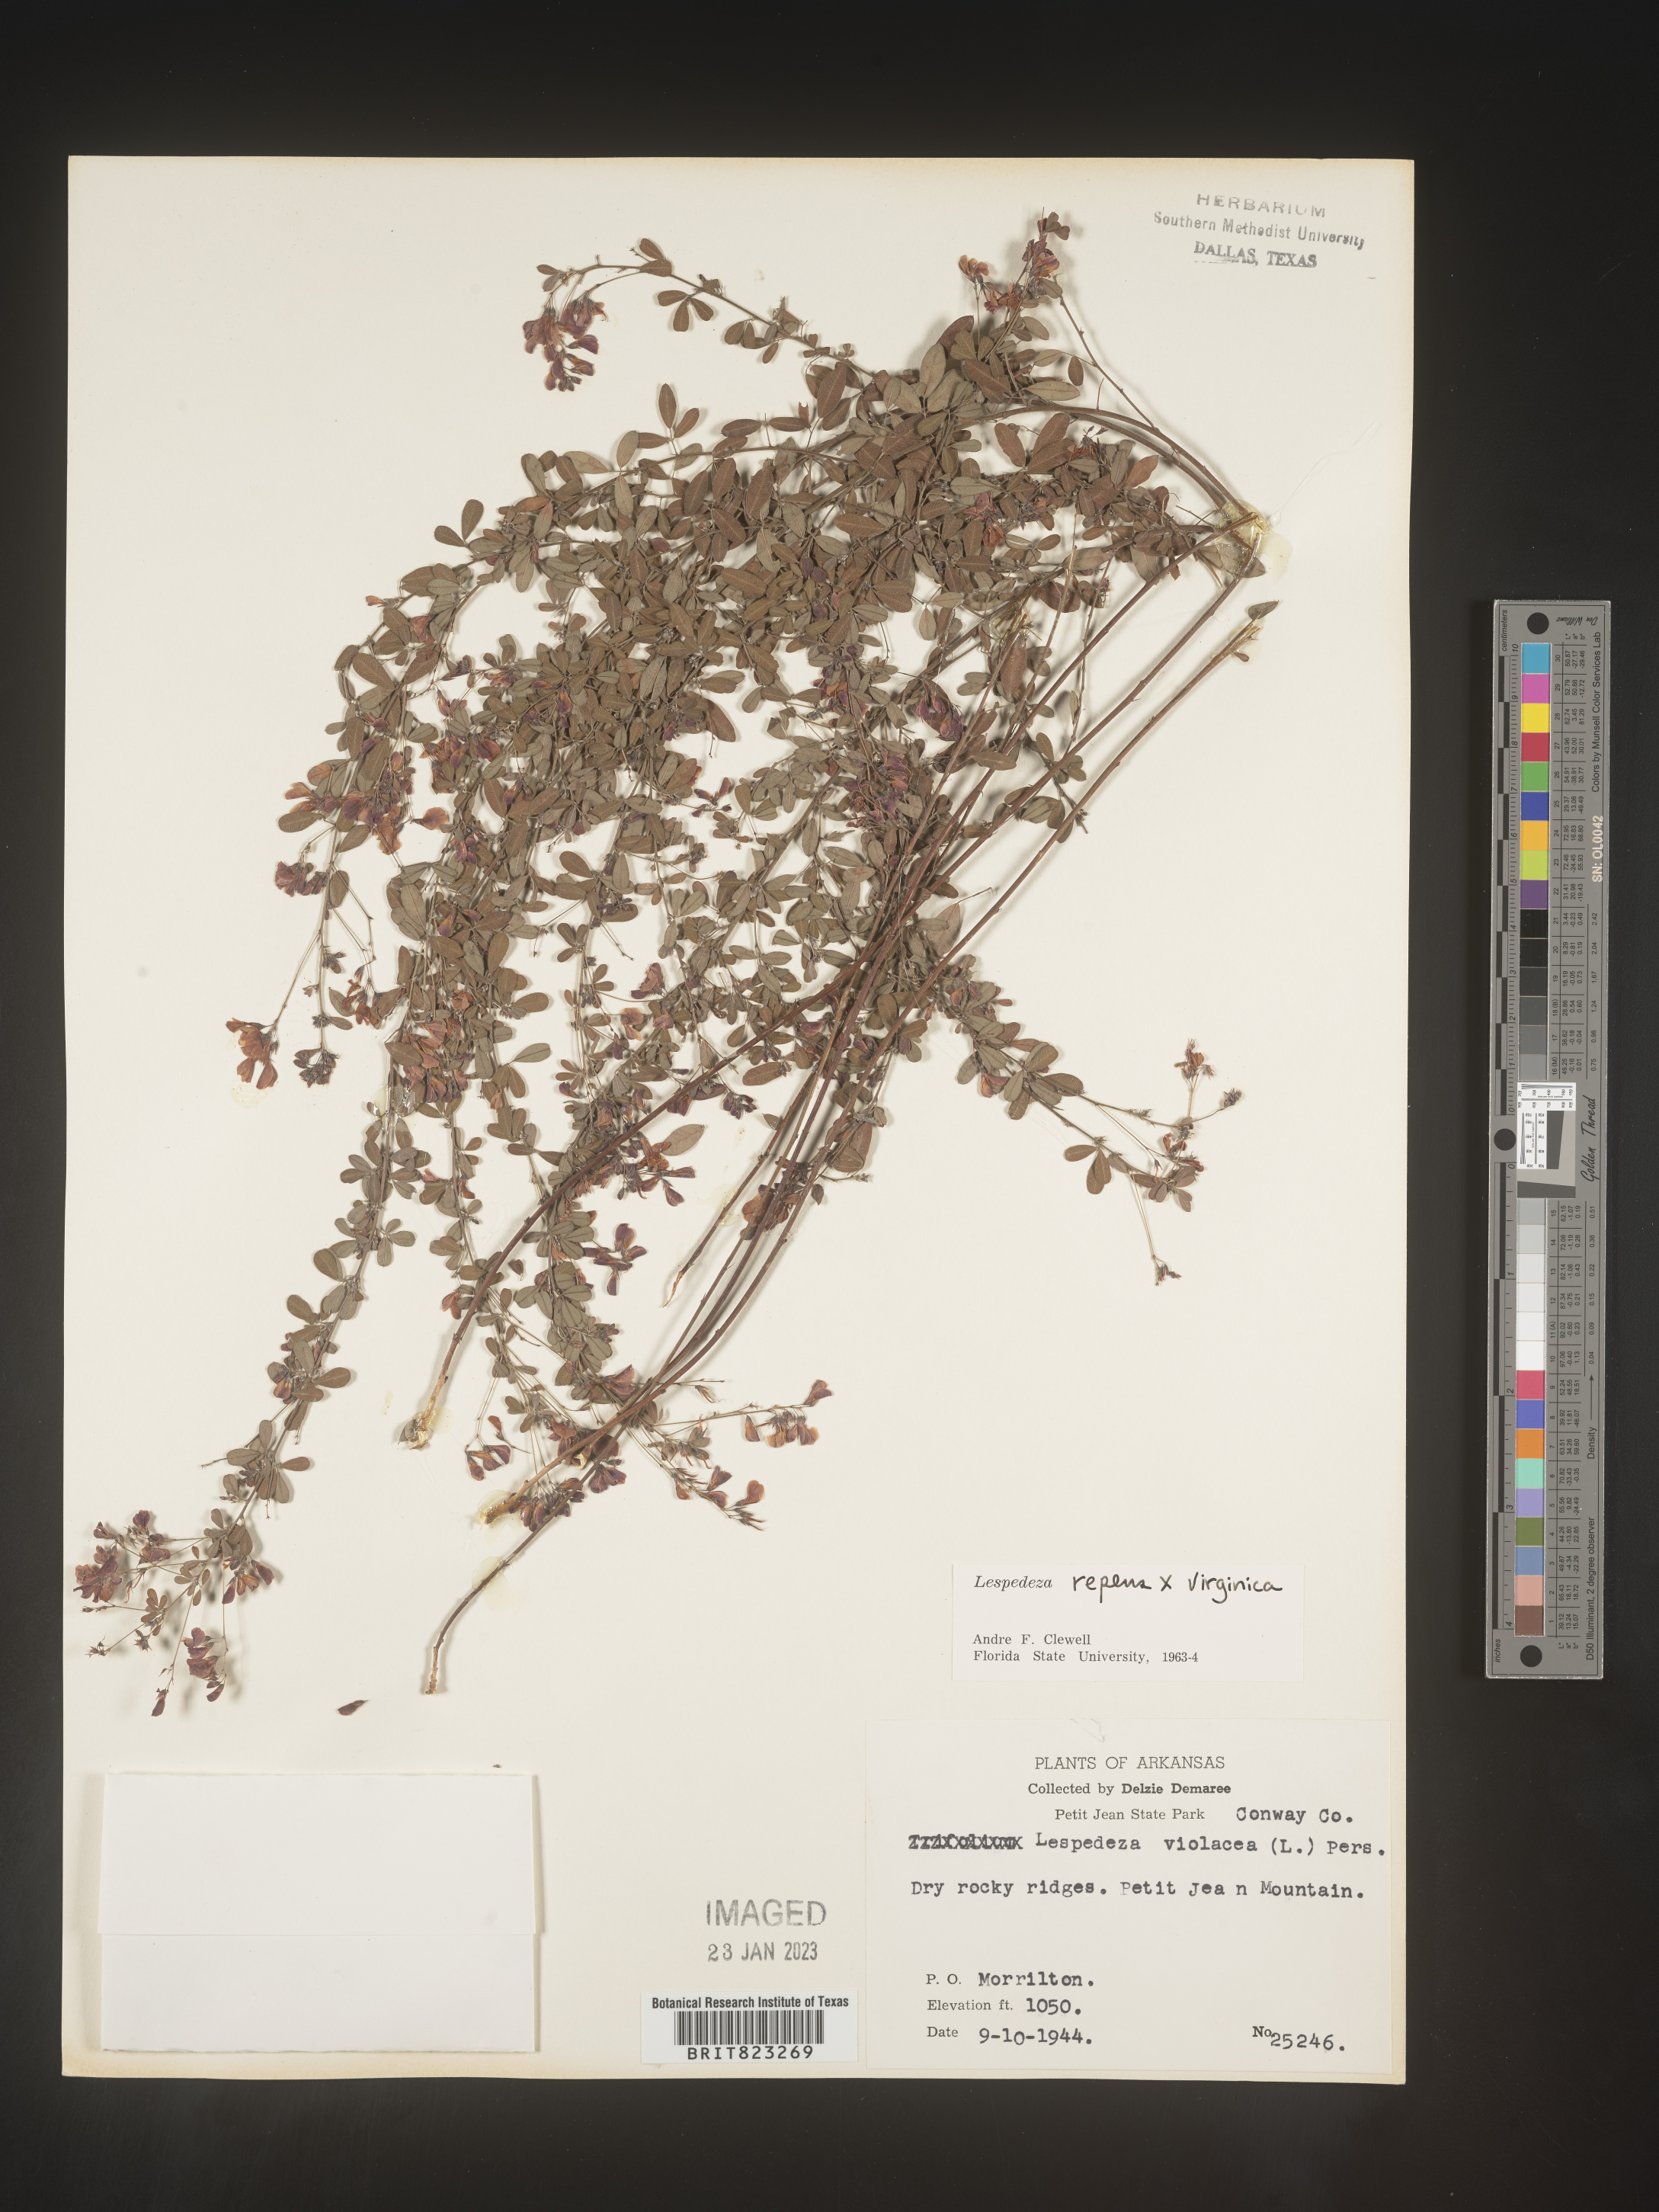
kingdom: Plantae
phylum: Tracheophyta
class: Magnoliopsida
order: Fabales
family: Fabaceae
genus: Lespedeza
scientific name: Lespedeza repens
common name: Creeping bush-clover
